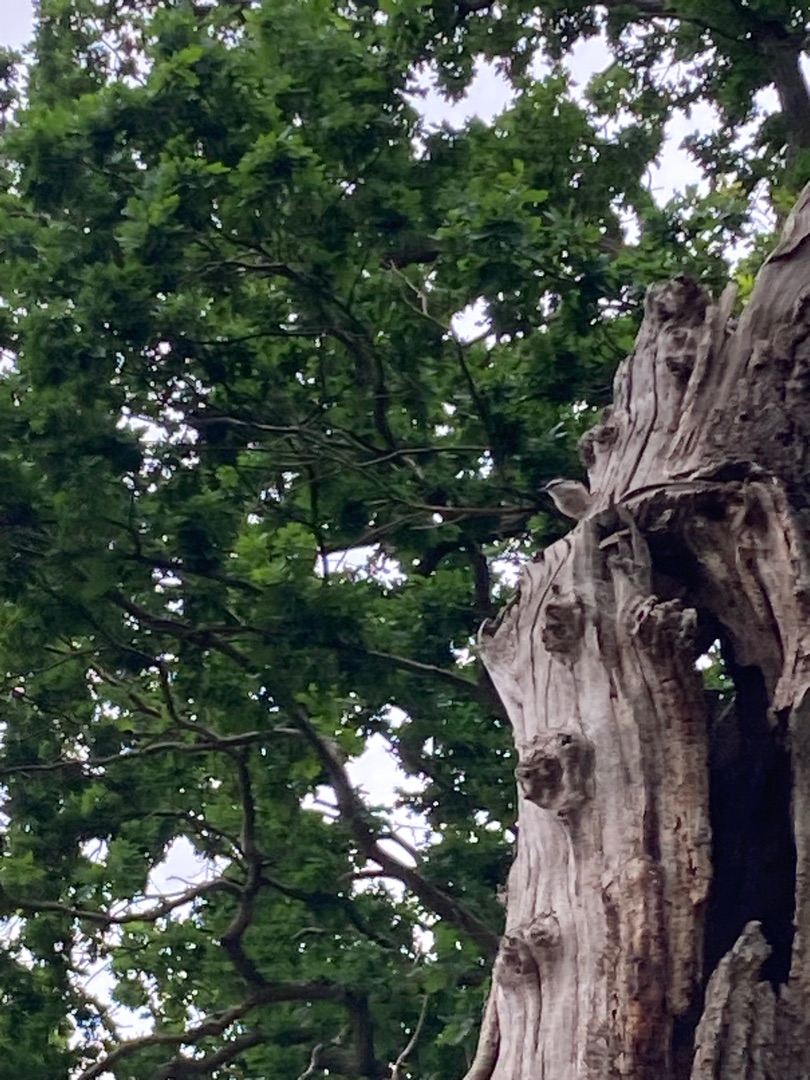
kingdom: Animalia
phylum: Chordata
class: Aves
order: Passeriformes
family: Sittidae
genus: Sitta
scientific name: Sitta europaea
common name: Spætmejse
